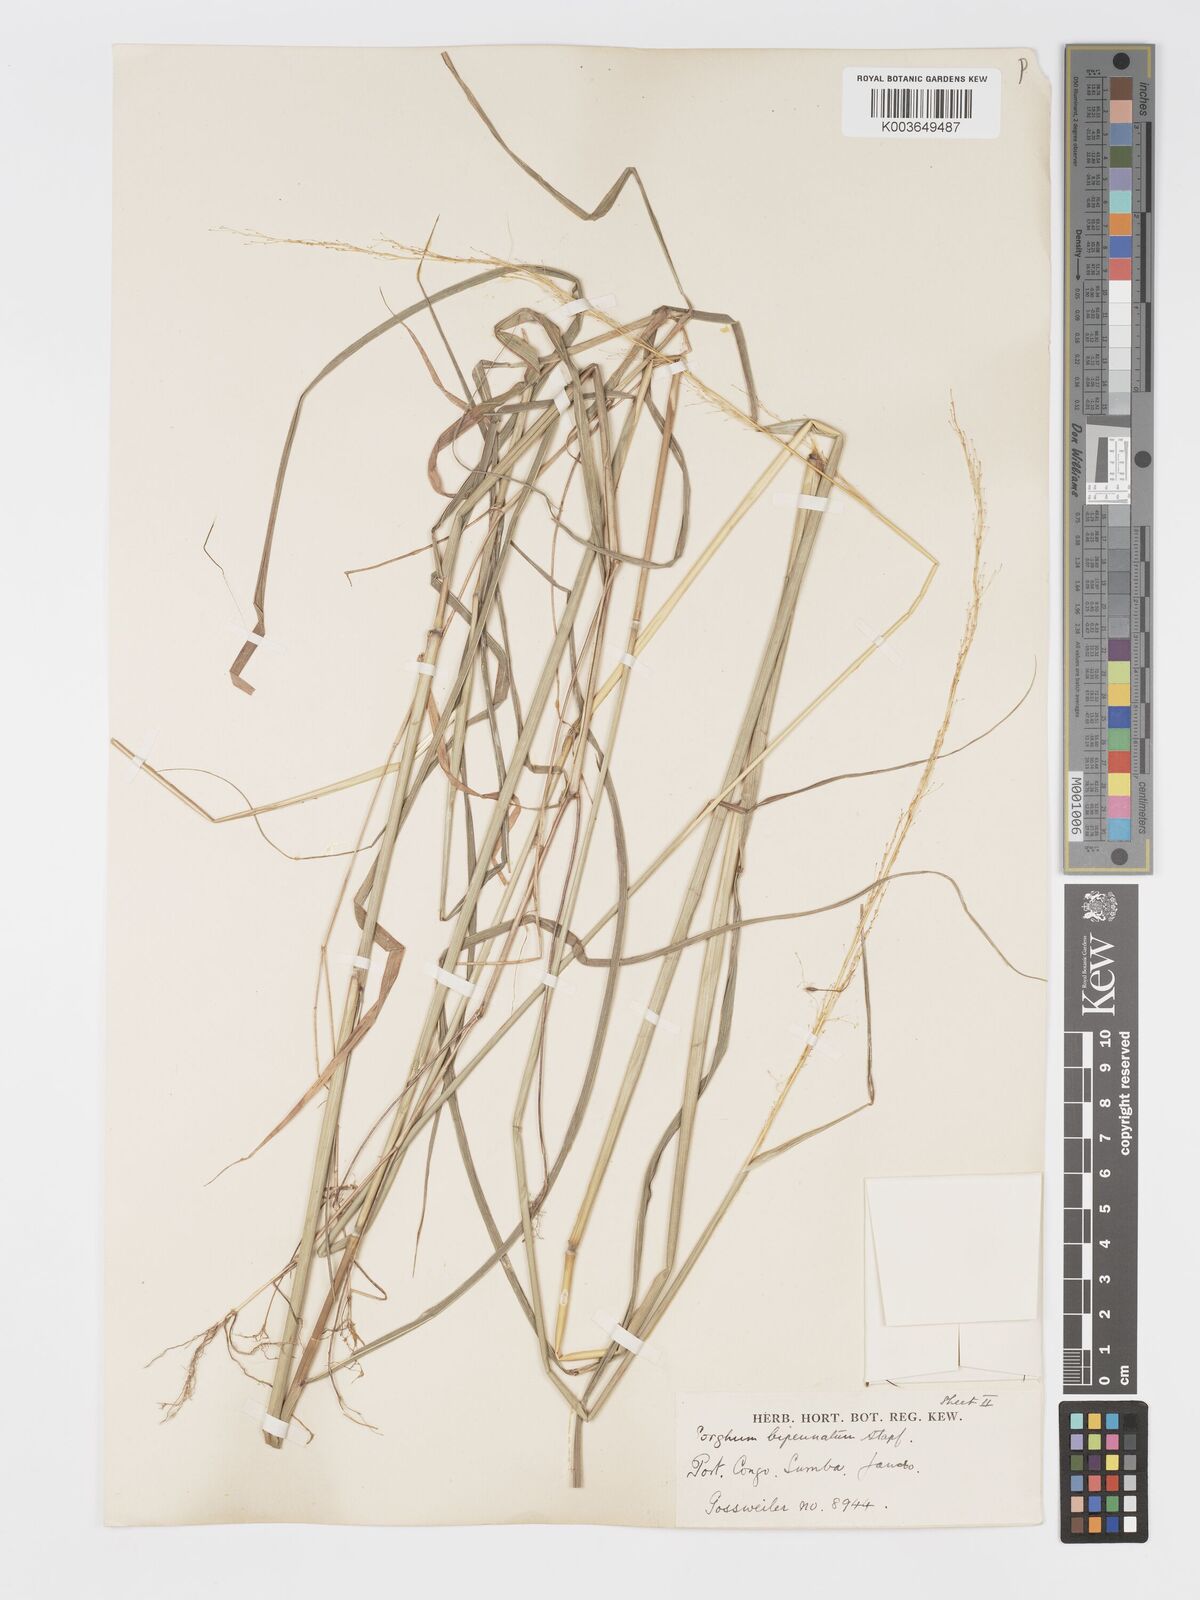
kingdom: Plantae
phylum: Tracheophyta
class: Liliopsida
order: Poales
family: Poaceae
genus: Sorghastrum
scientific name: Sorghastrum incompletum
